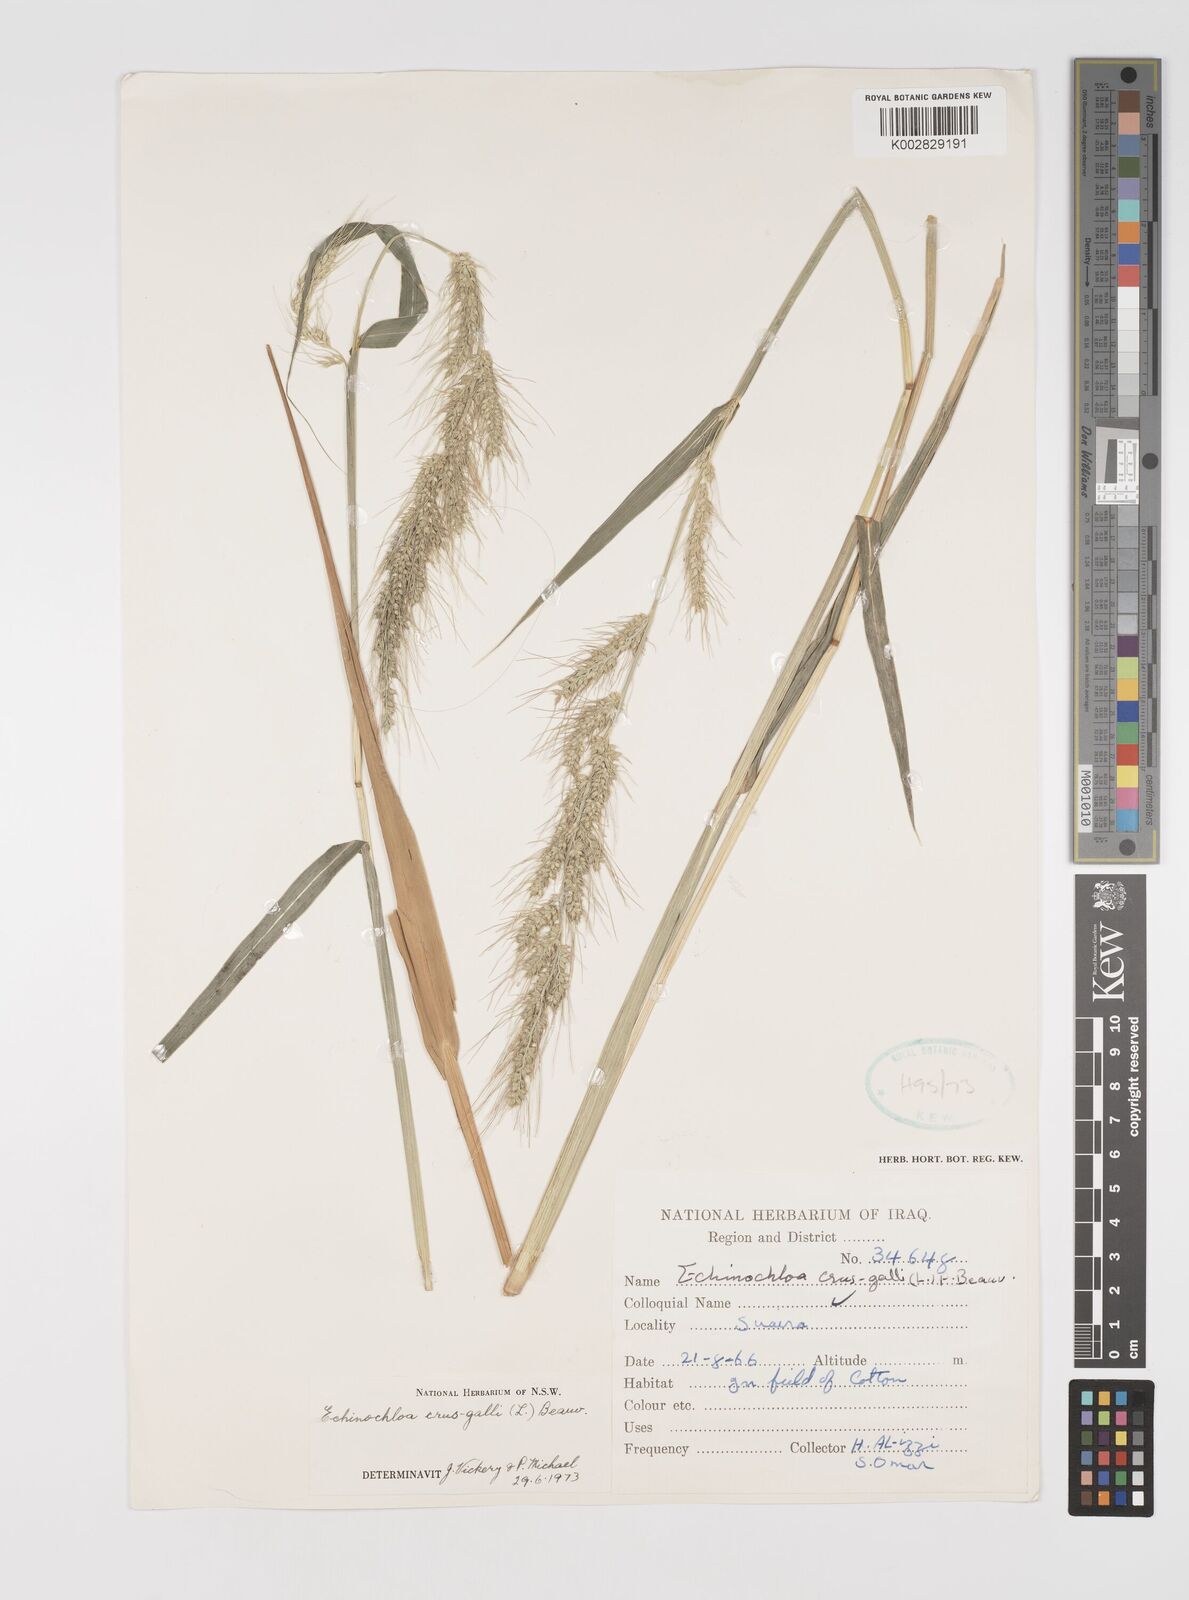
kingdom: Plantae
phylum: Tracheophyta
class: Liliopsida
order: Poales
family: Poaceae
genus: Echinochloa
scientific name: Echinochloa crus-galli
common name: Cockspur
